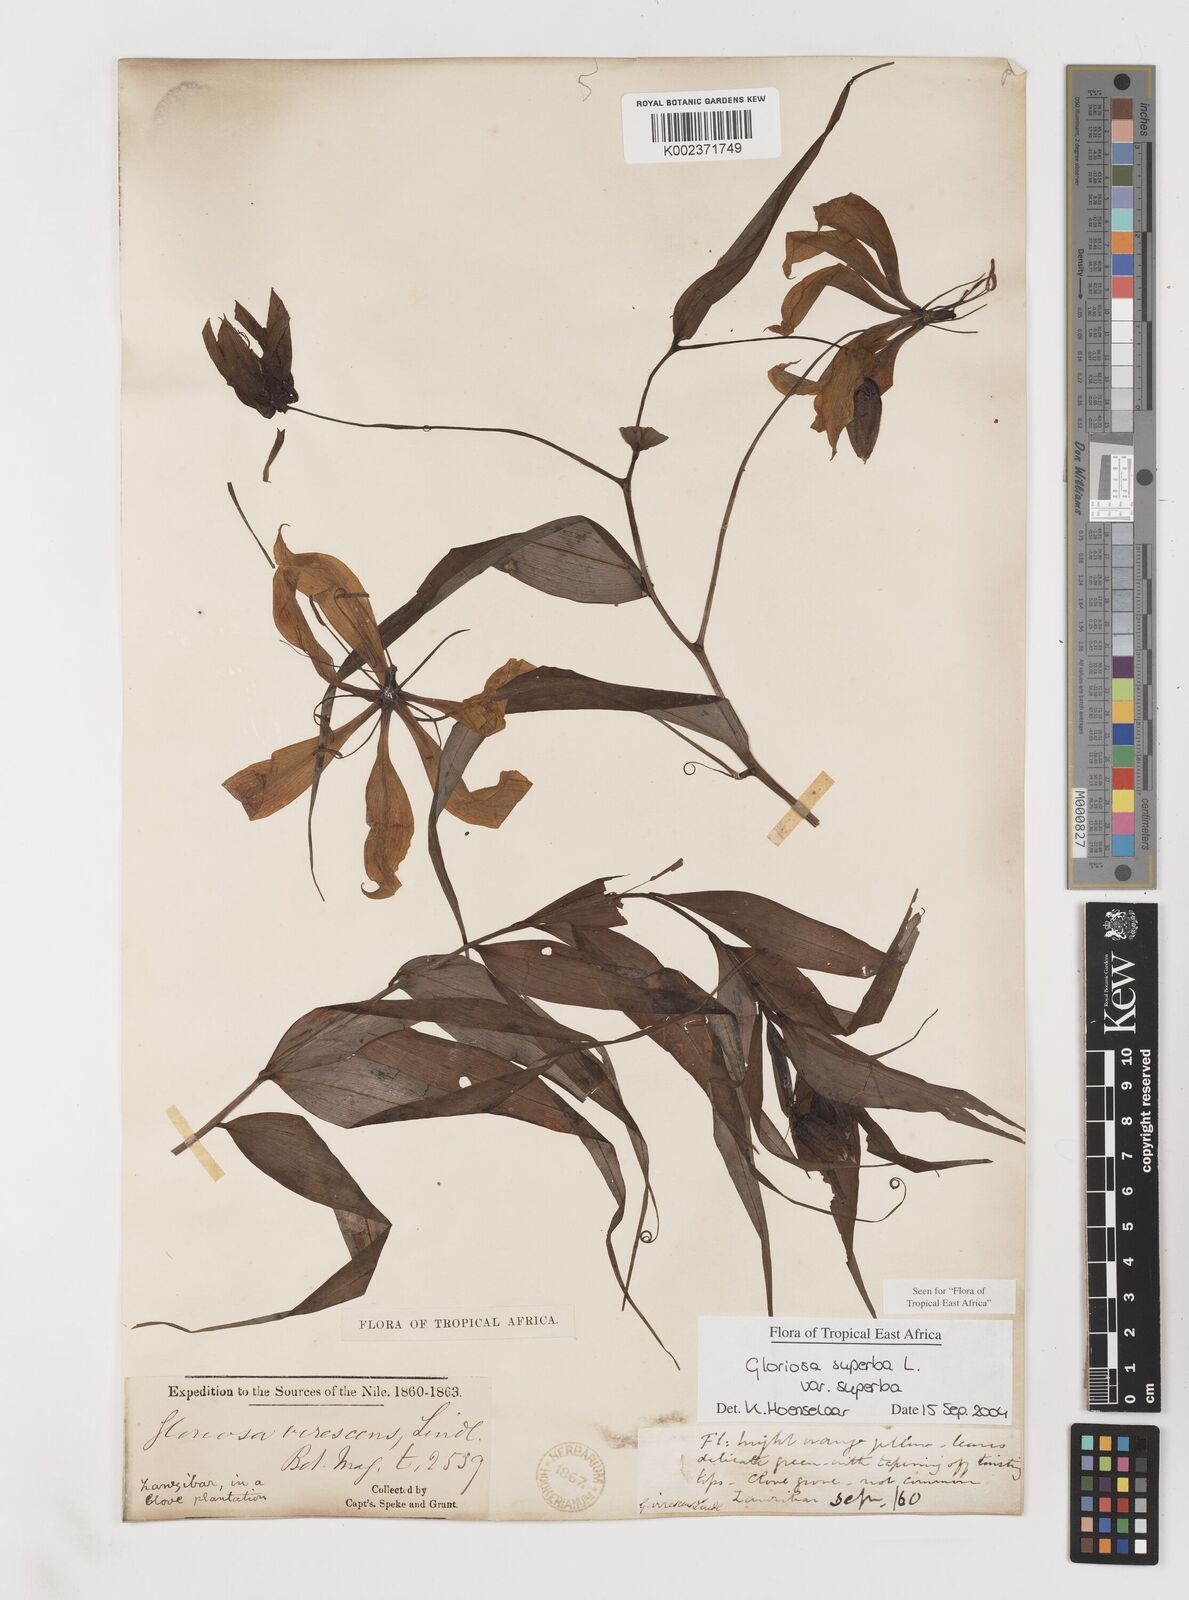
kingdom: Plantae
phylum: Tracheophyta
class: Liliopsida
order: Liliales
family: Colchicaceae
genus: Gloriosa
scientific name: Gloriosa simplex
